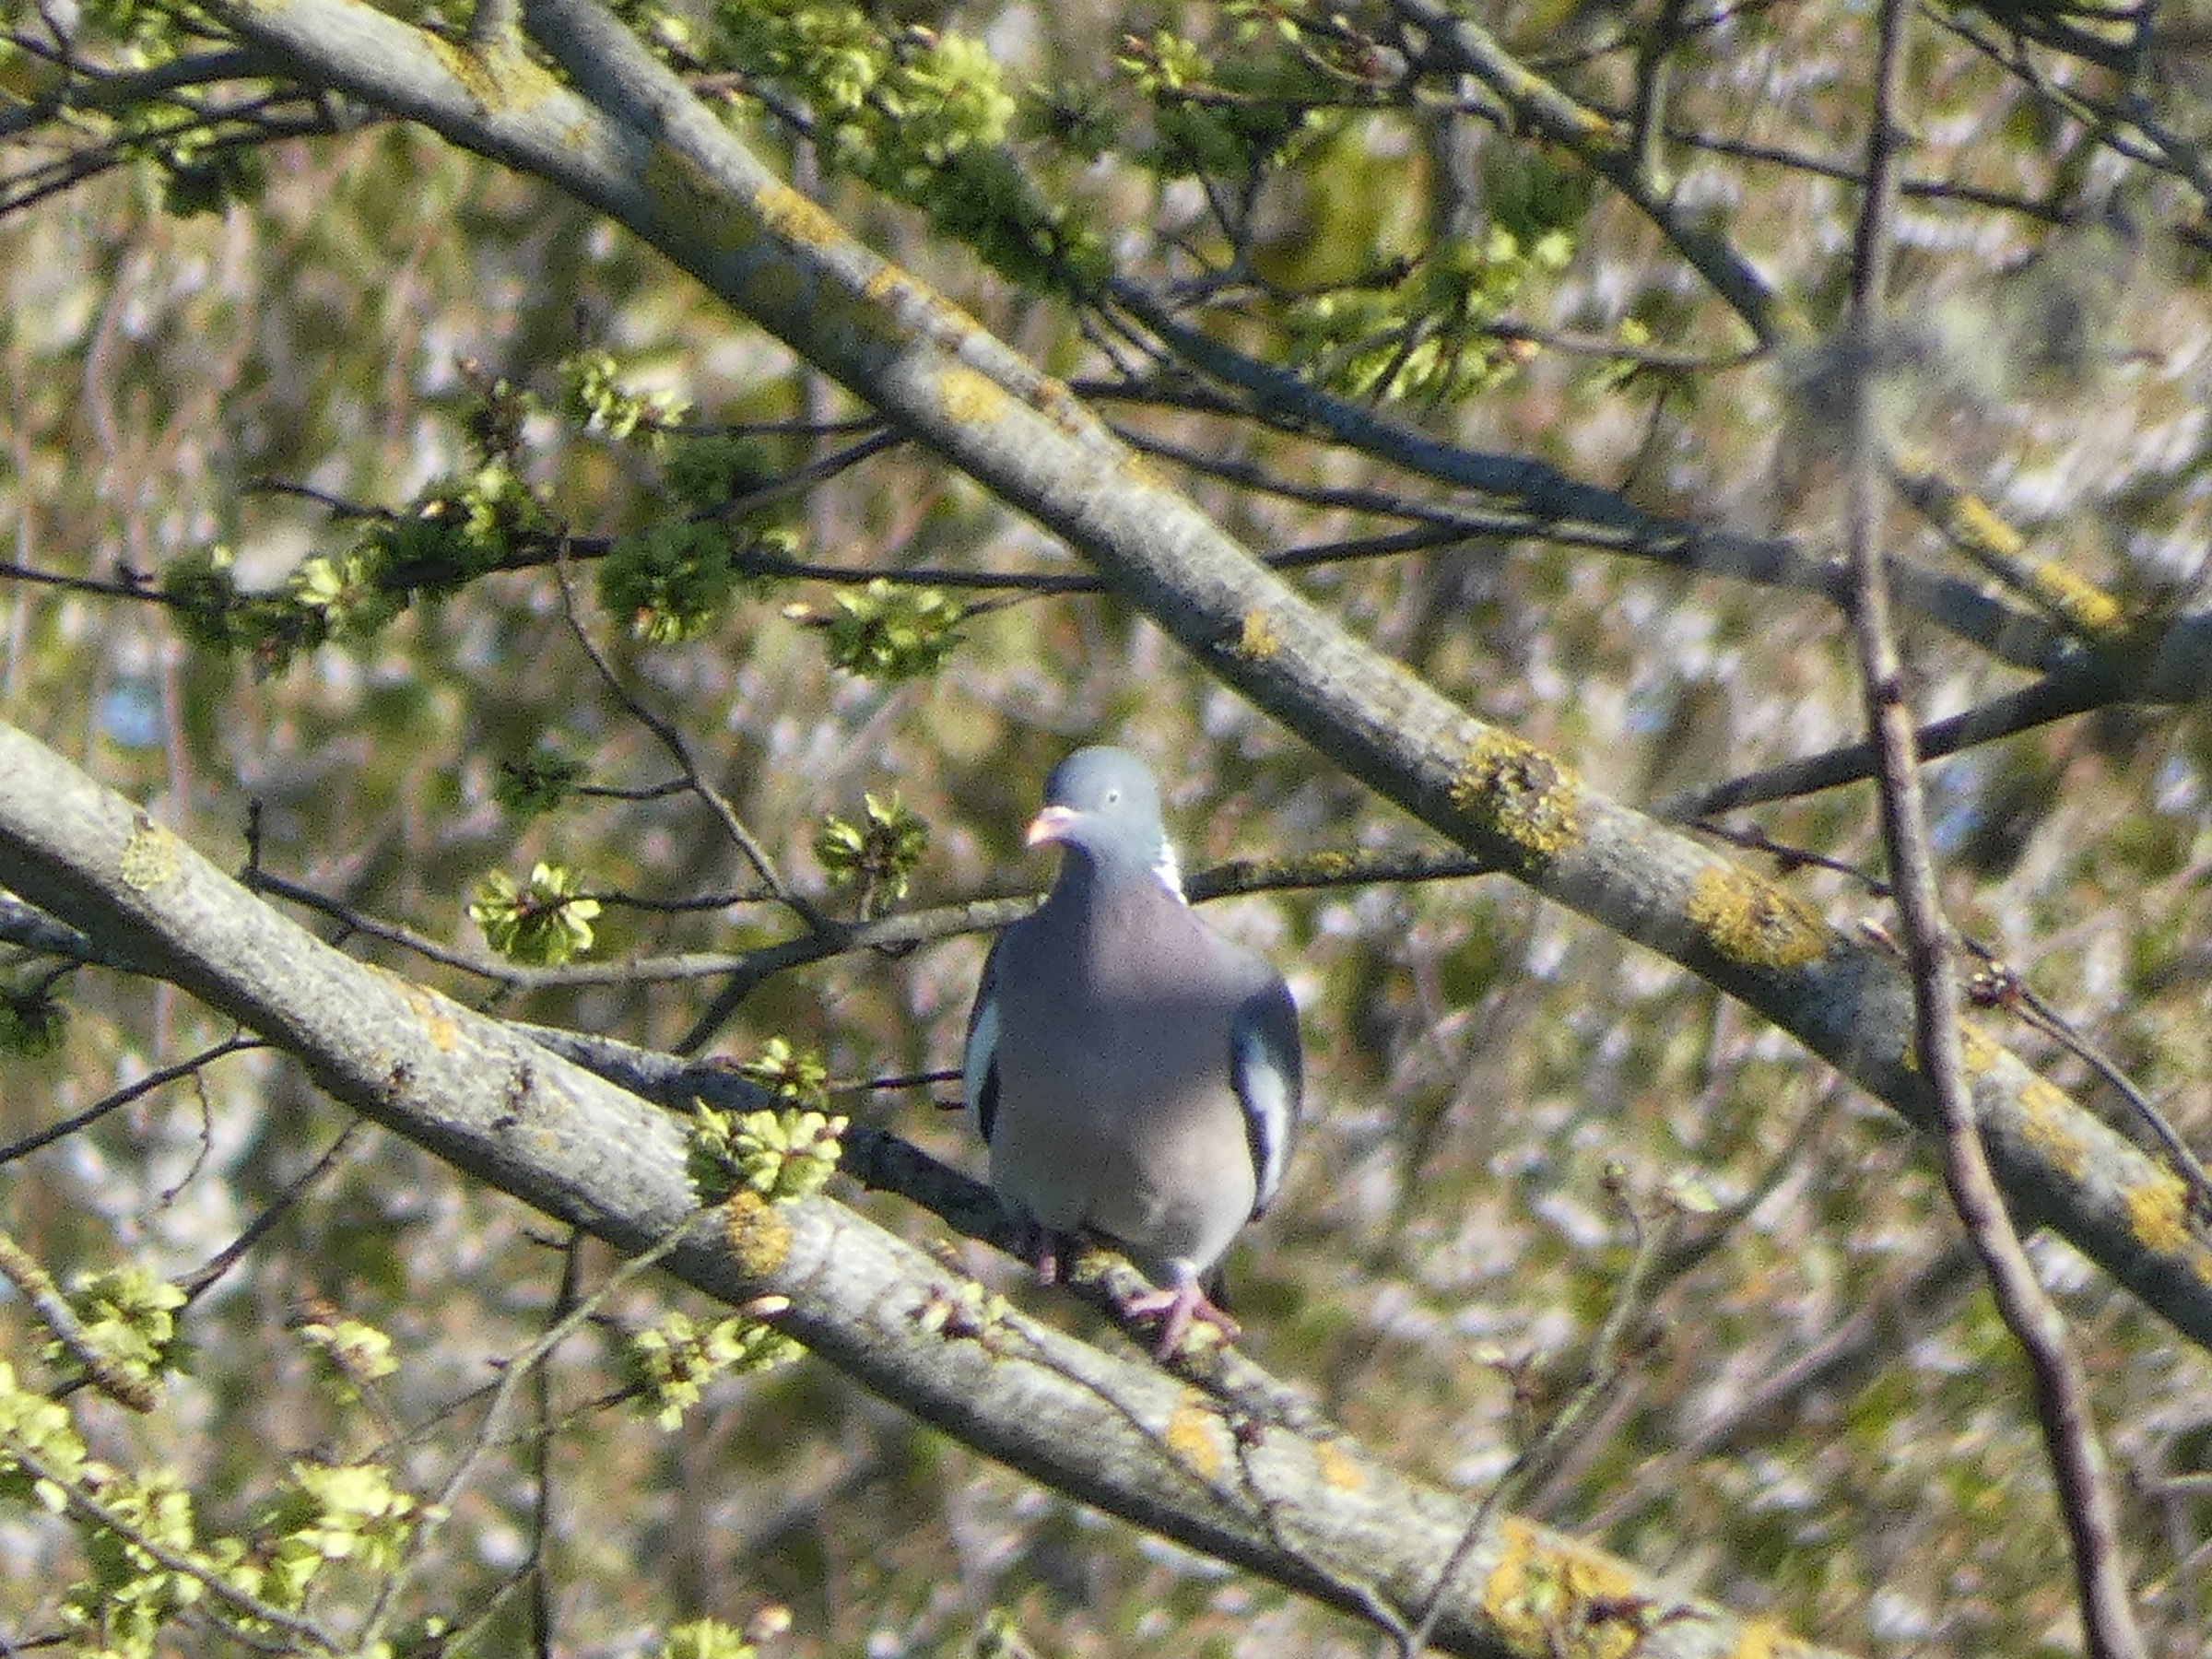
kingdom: Animalia
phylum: Chordata
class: Aves
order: Columbiformes
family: Columbidae
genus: Columba
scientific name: Columba palumbus
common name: Ringdue
